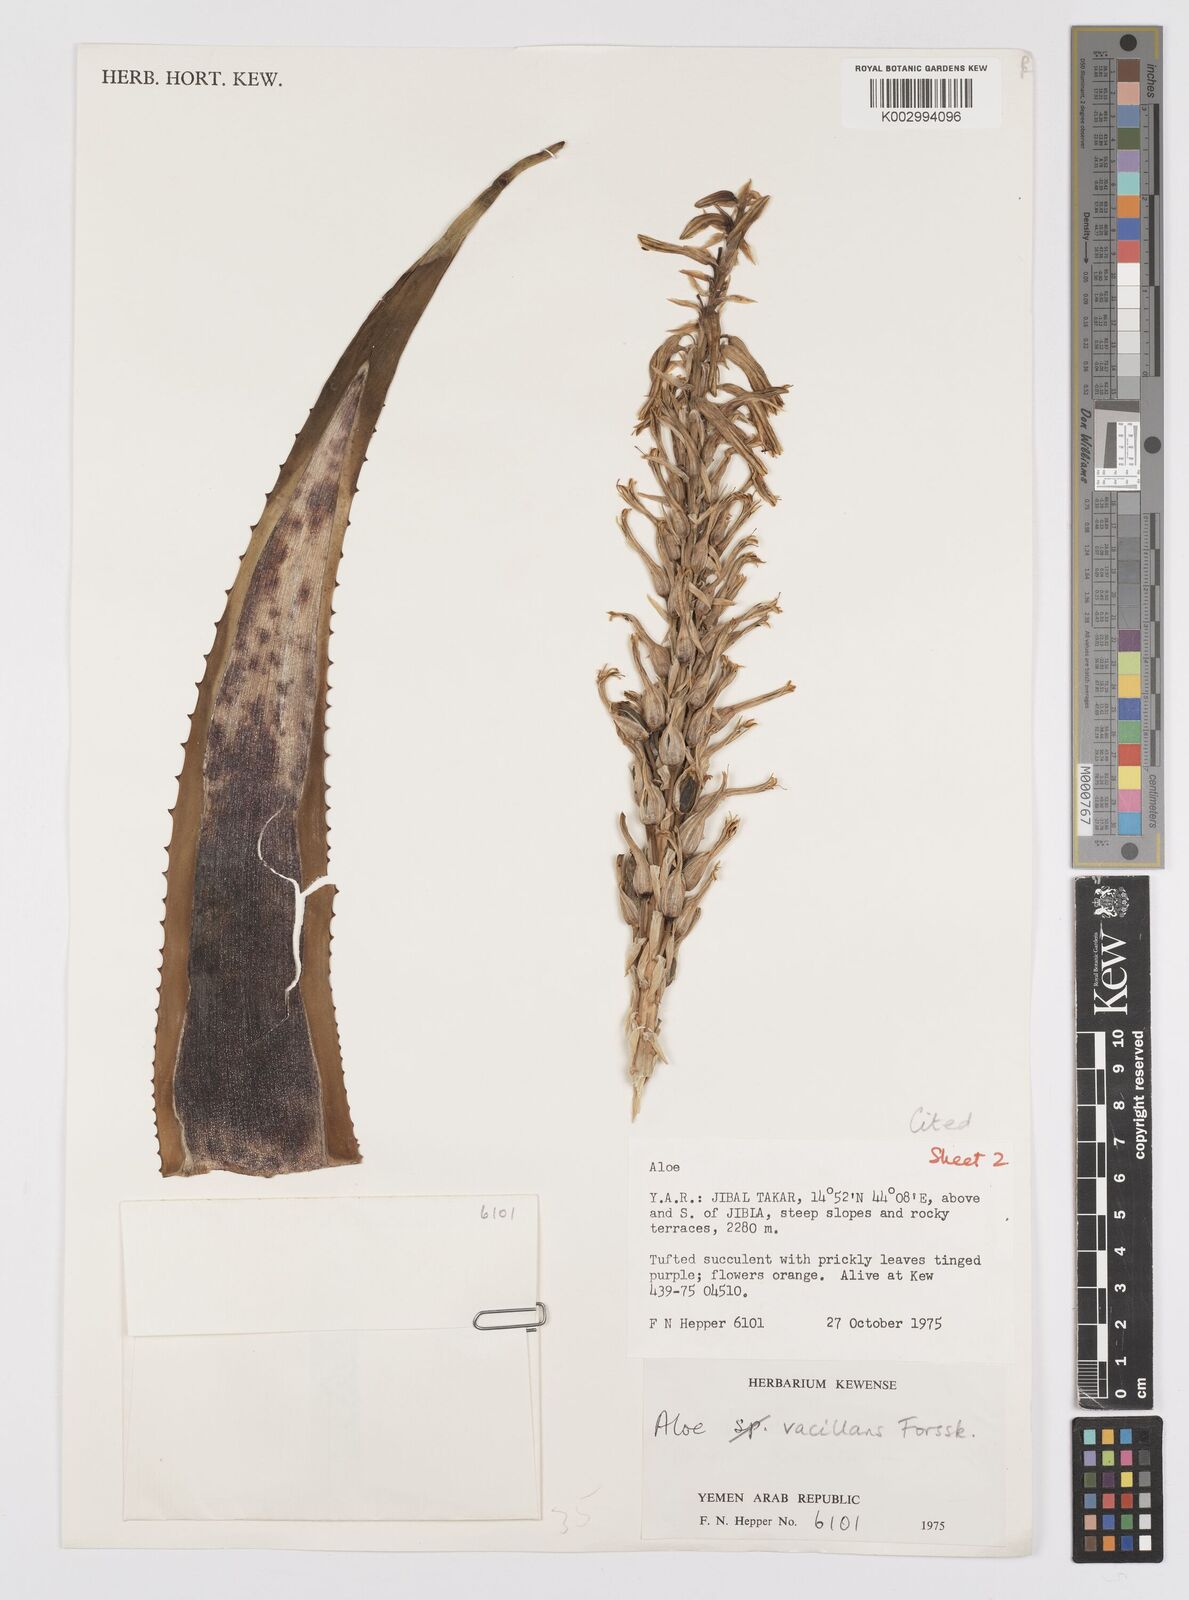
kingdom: Plantae
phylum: Tracheophyta
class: Liliopsida
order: Asparagales
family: Asphodelaceae
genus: Aloe
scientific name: Aloe vacillans
